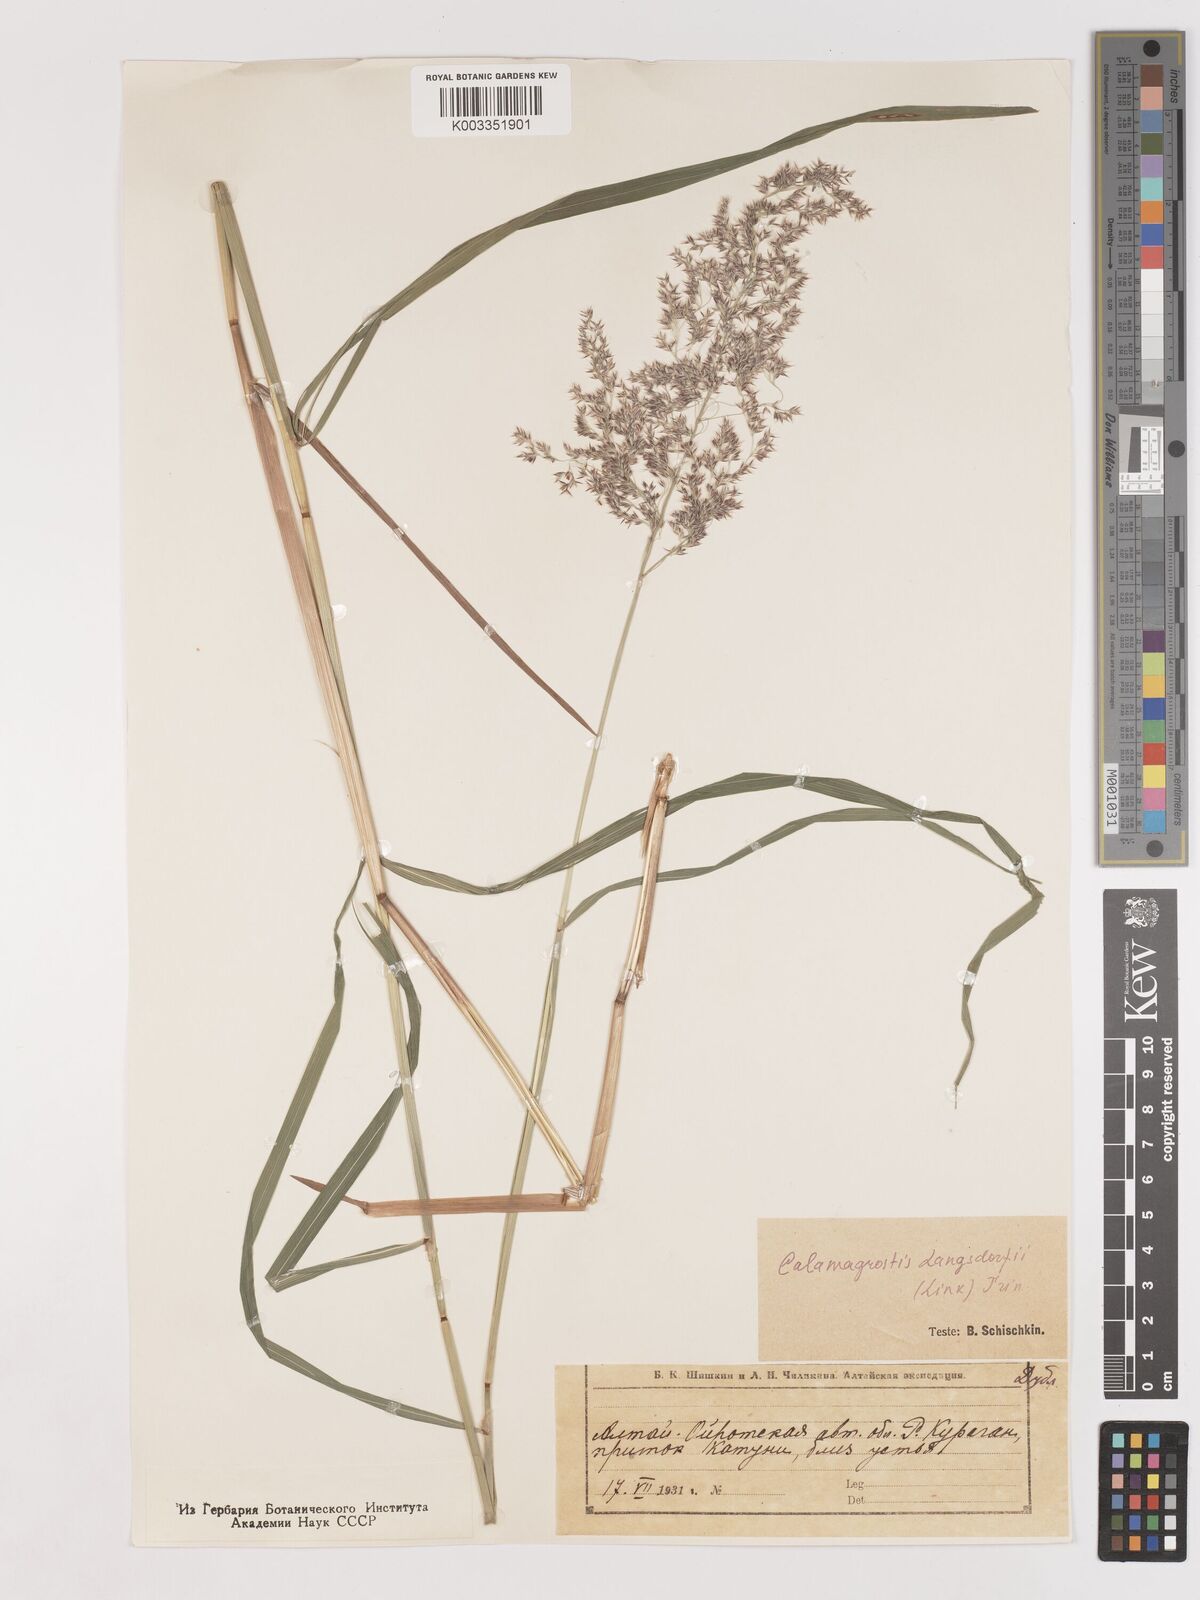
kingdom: Plantae
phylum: Tracheophyta
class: Liliopsida
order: Poales
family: Poaceae
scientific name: Poaceae
